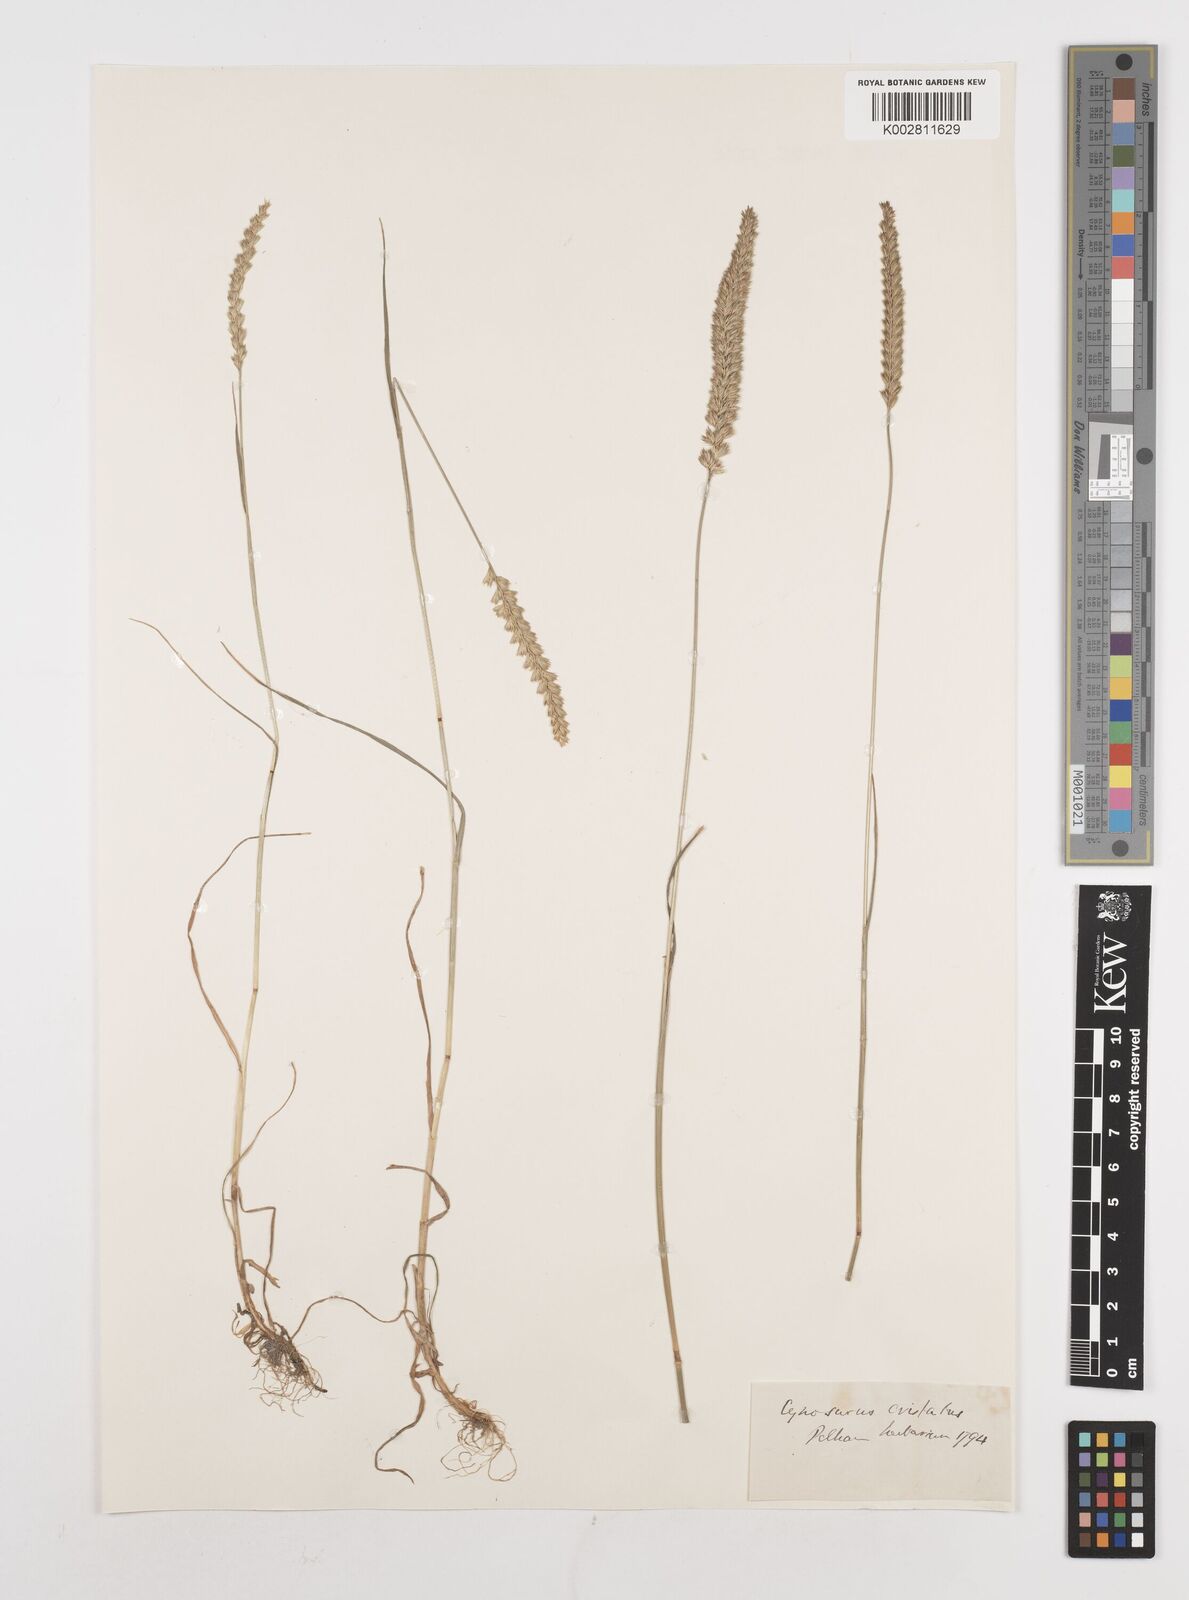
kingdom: Plantae
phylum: Tracheophyta
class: Liliopsida
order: Poales
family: Poaceae
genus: Cynosurus
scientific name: Cynosurus cristatus
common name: Crested dog's-tail
